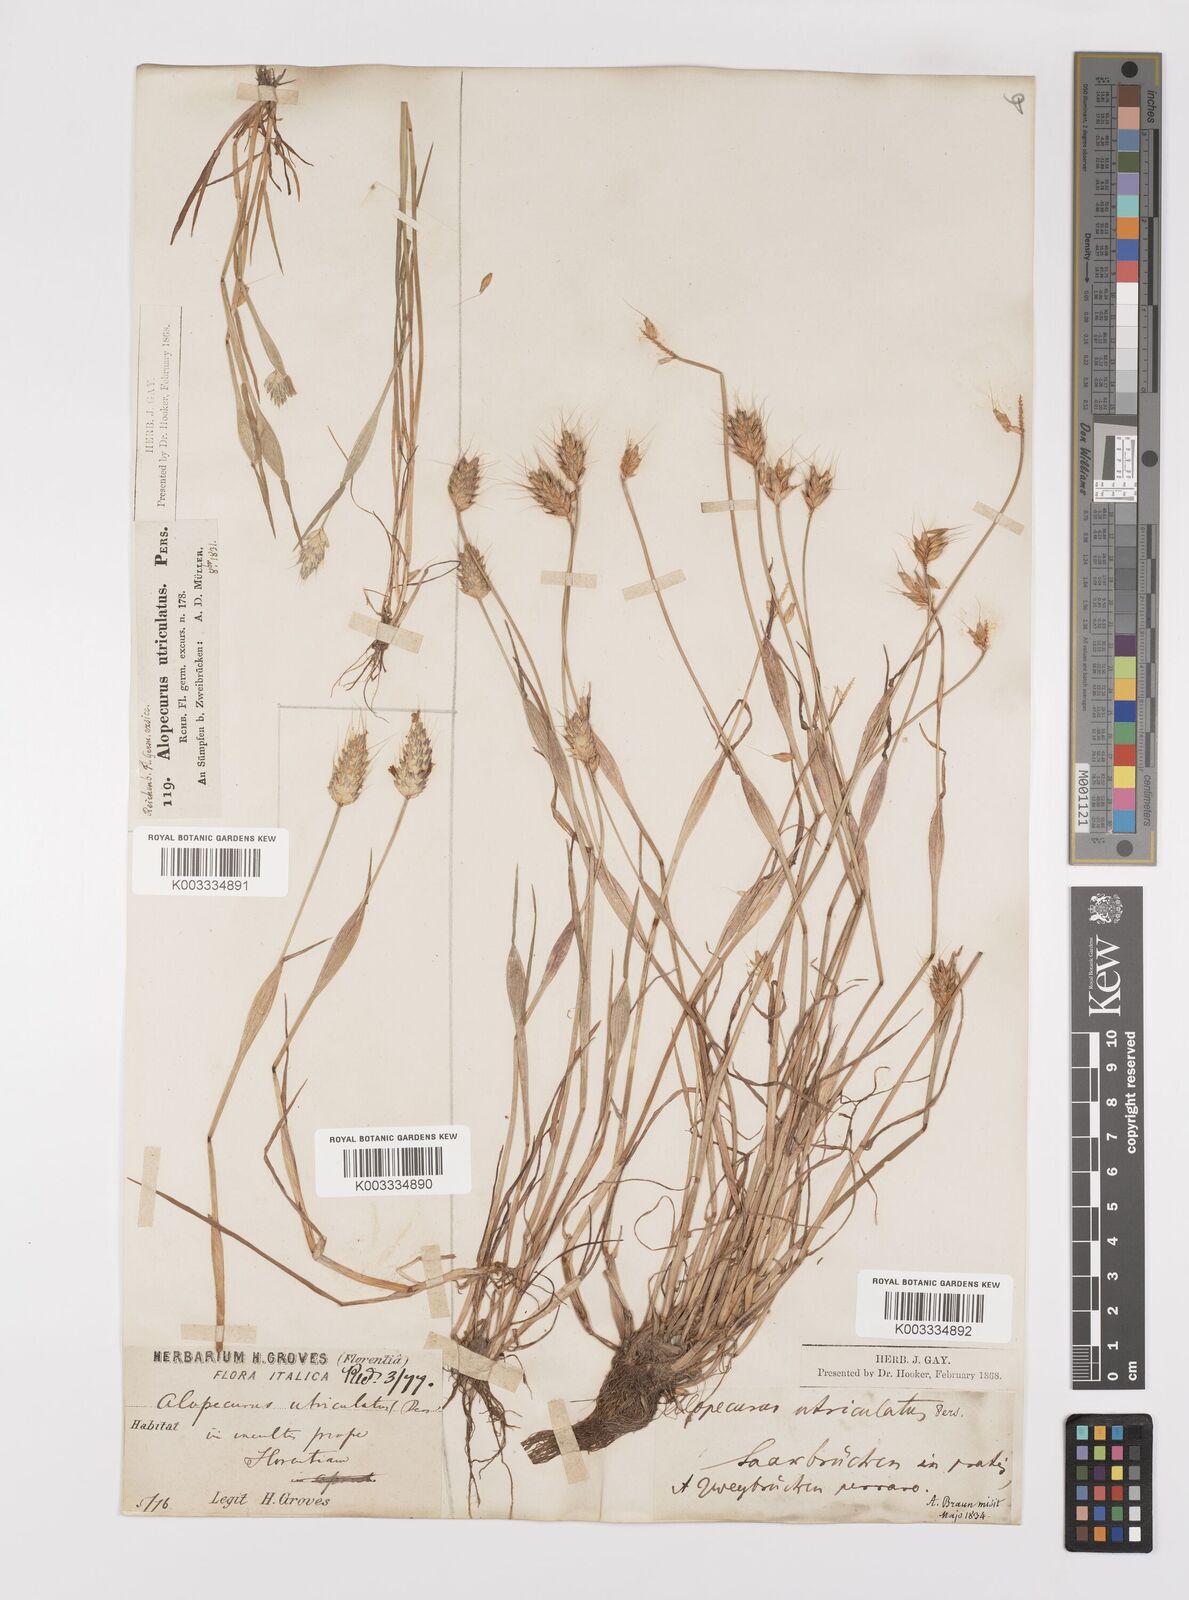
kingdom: Plantae
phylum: Tracheophyta
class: Liliopsida
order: Poales
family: Poaceae
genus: Alopecurus
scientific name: Alopecurus rendlei
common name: Rendle's meadow foxtail
